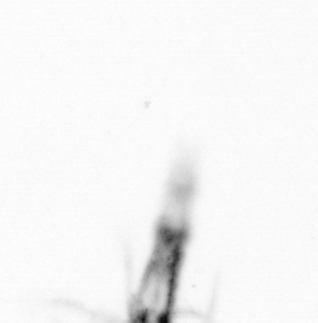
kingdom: Chromista
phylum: Ochrophyta
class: Bacillariophyceae
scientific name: Bacillariophyceae
